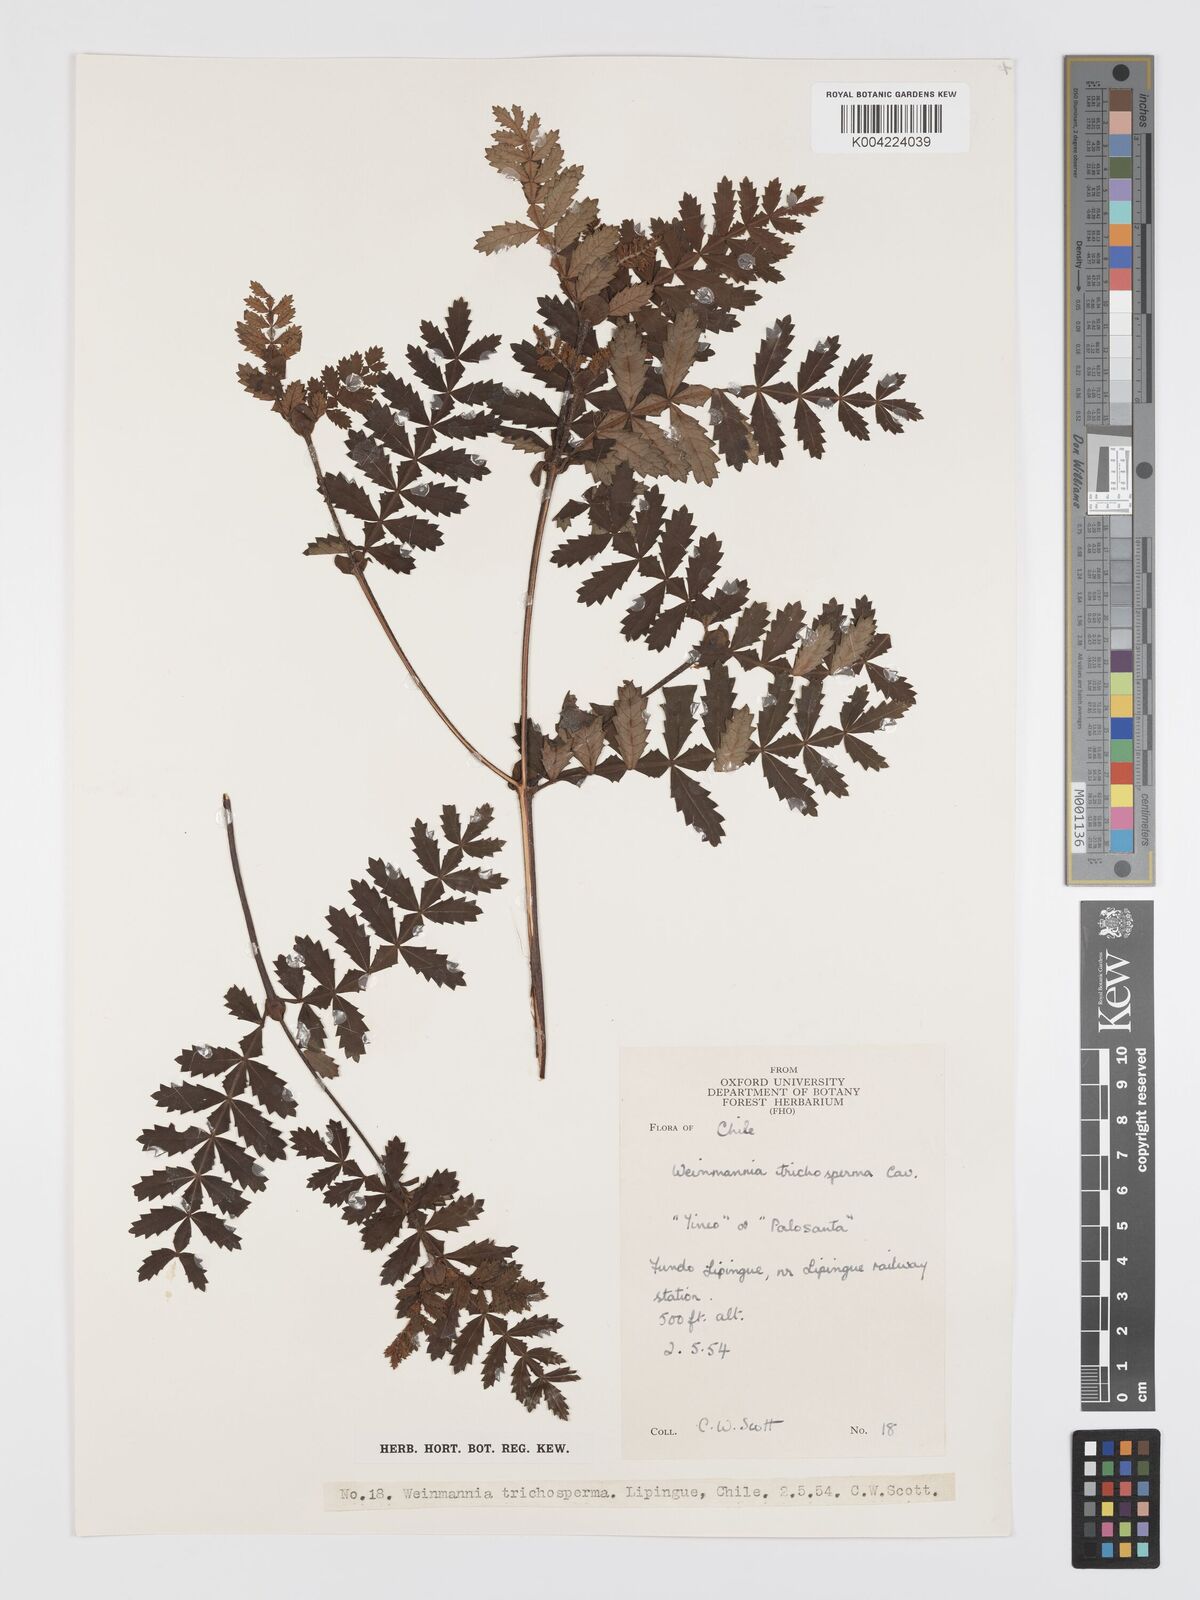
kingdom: Plantae
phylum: Tracheophyta
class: Magnoliopsida
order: Oxalidales
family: Cunoniaceae
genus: Weinmannia
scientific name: Weinmannia trichosperma
